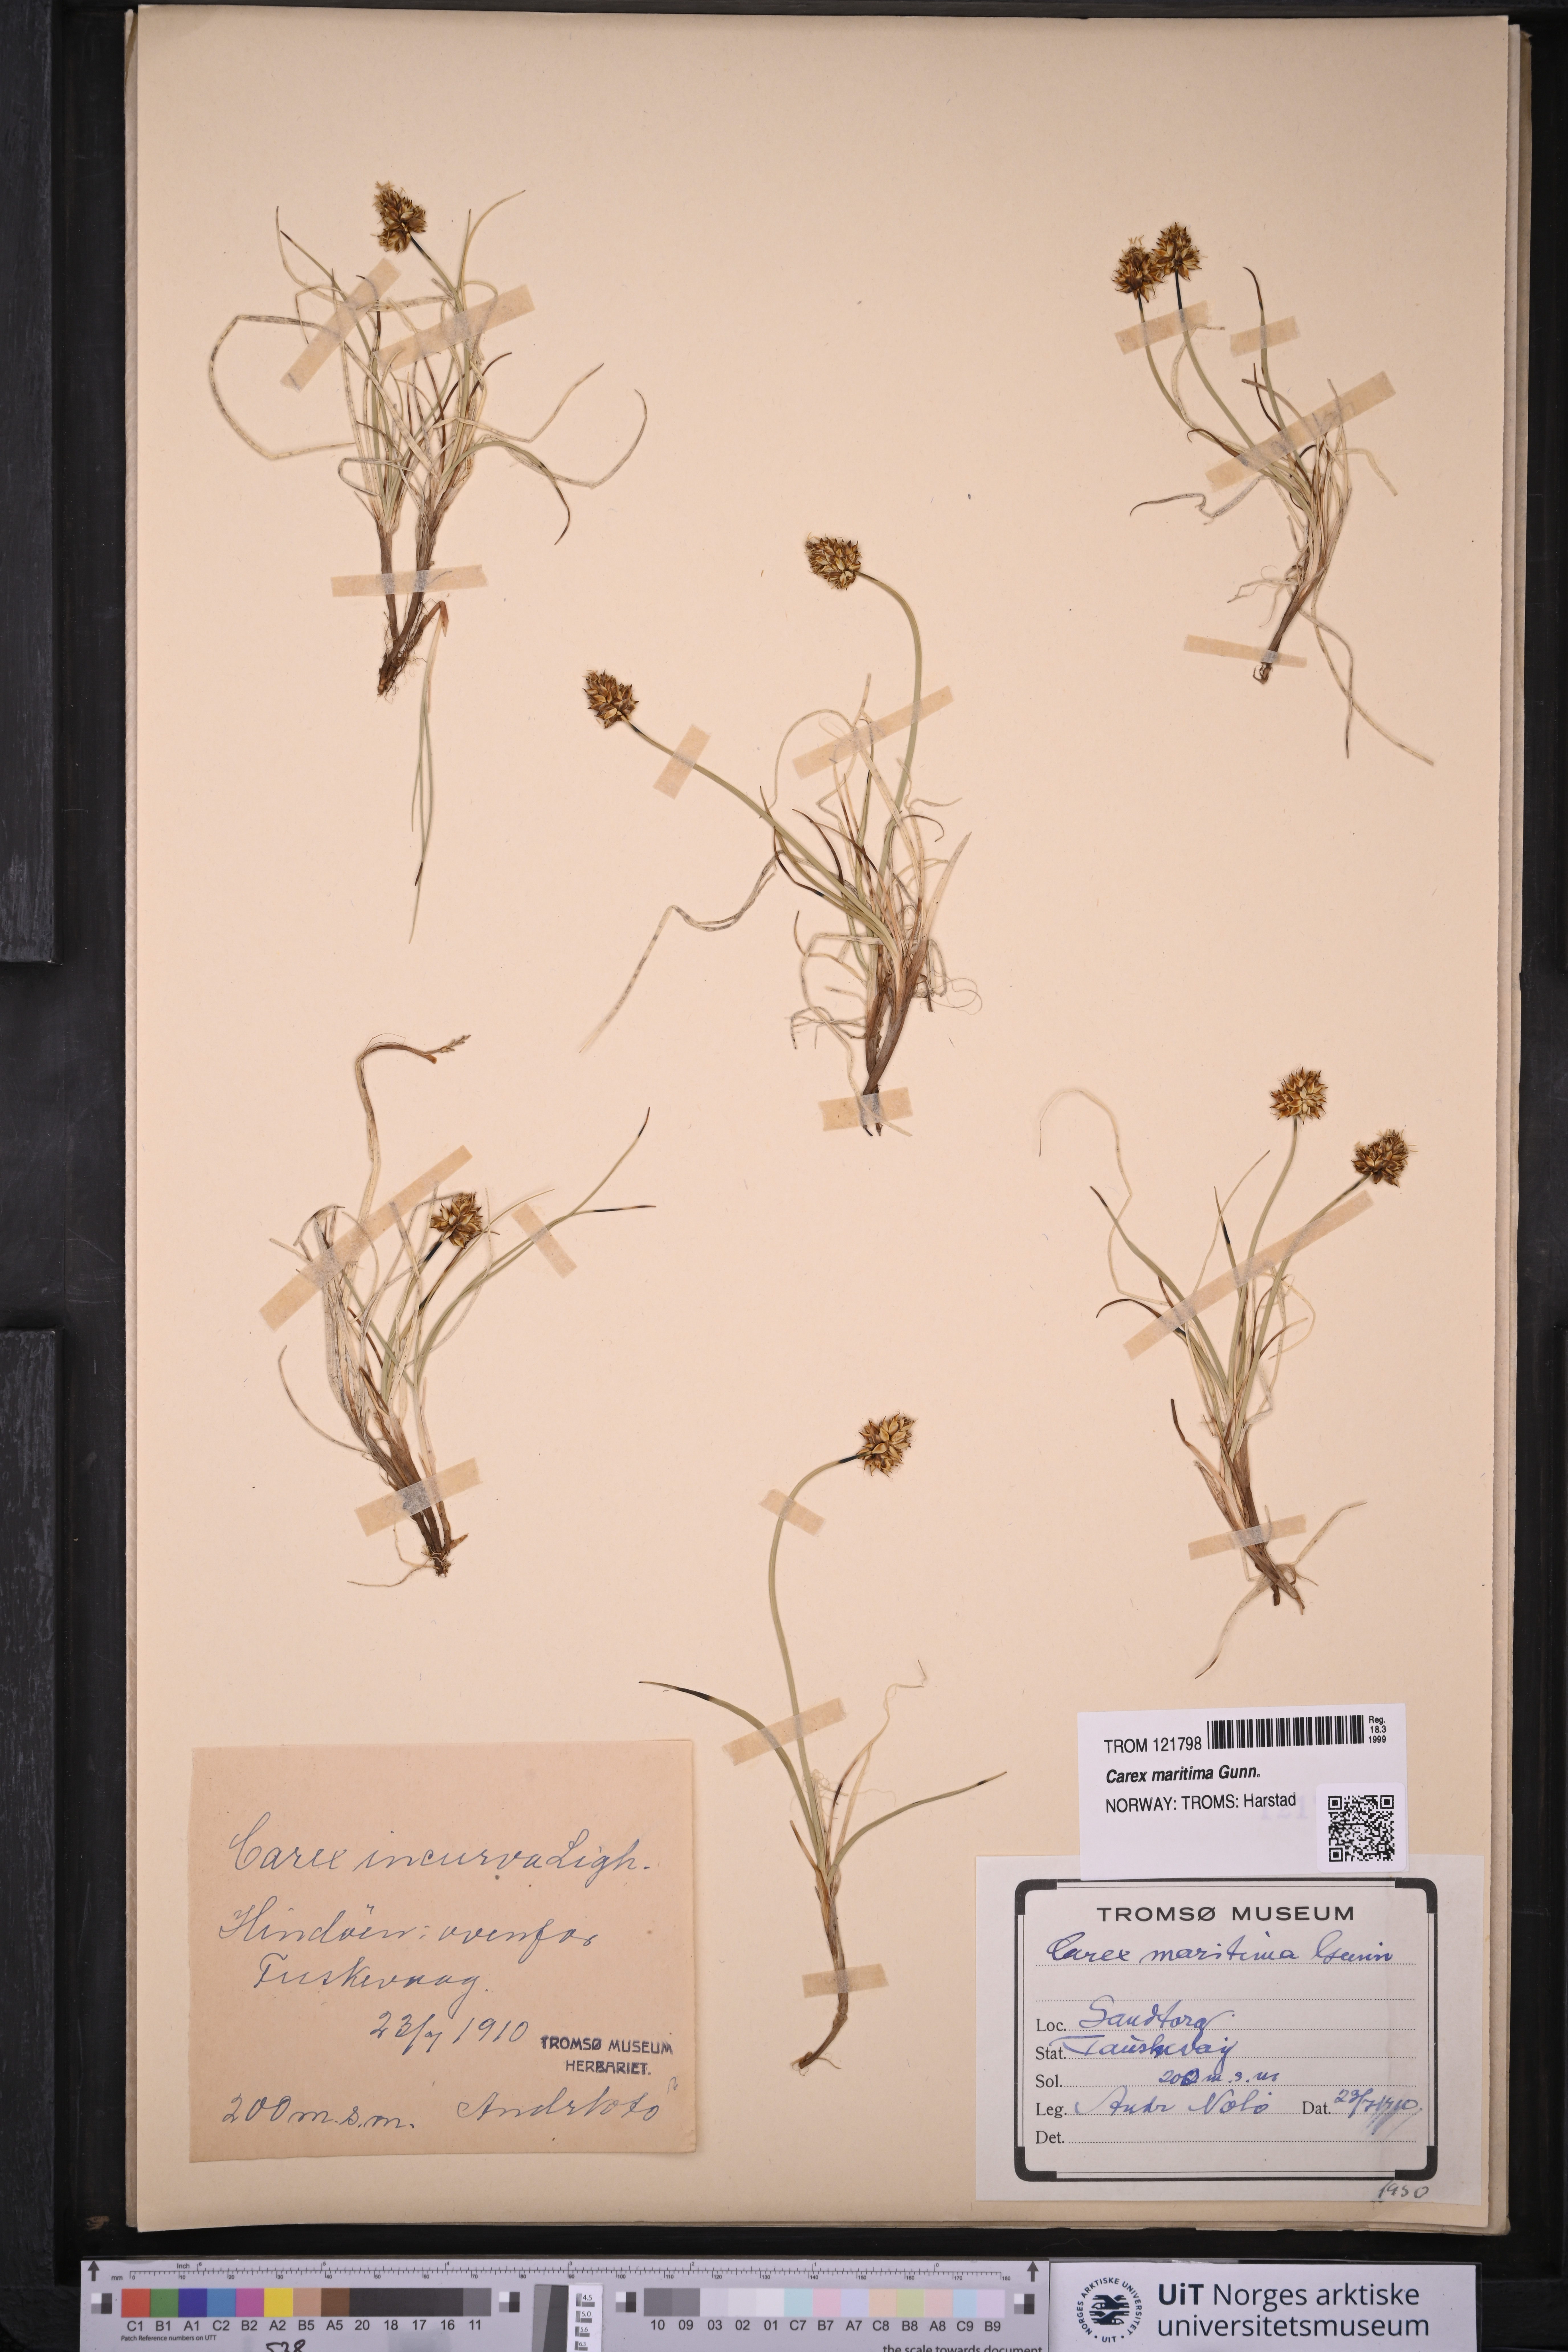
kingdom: Plantae
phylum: Tracheophyta
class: Liliopsida
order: Poales
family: Cyperaceae
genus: Carex
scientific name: Carex maritima
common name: Curved sedge
